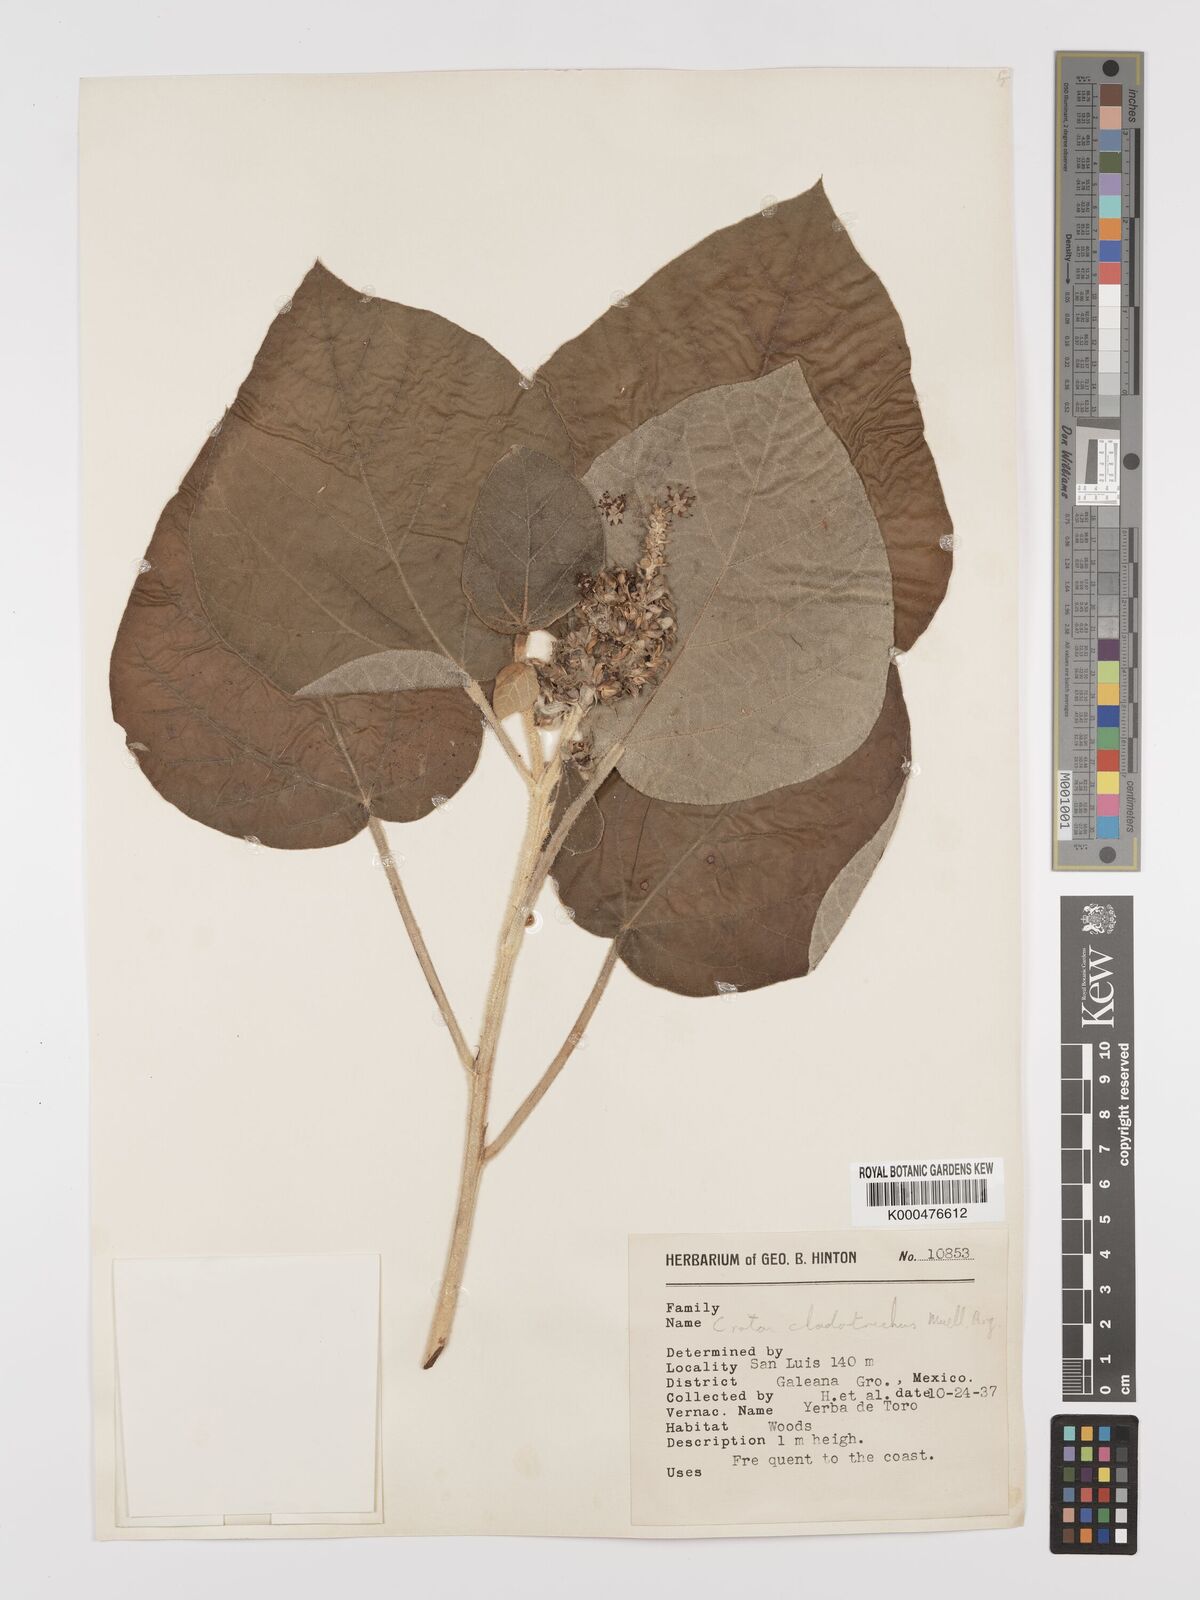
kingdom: Plantae
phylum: Tracheophyta
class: Magnoliopsida
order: Malpighiales
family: Euphorbiaceae
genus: Croton
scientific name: Croton suberosus
